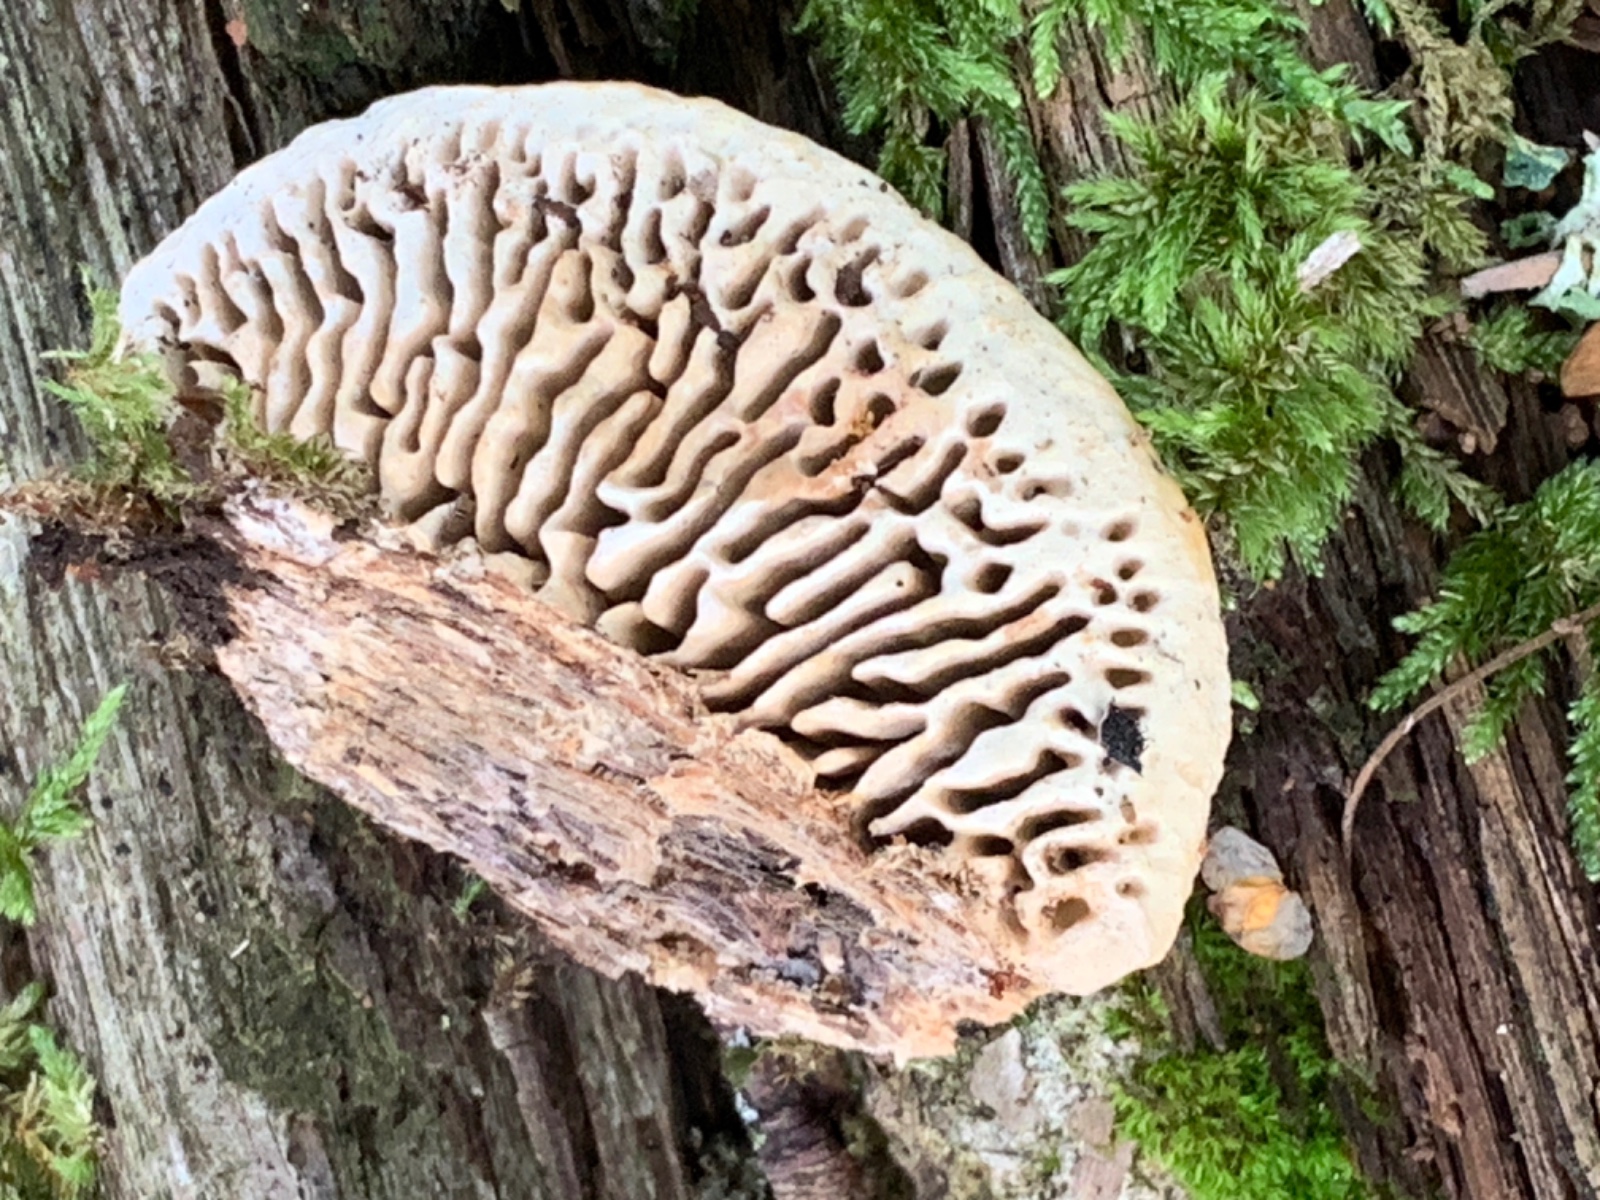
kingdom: Fungi
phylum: Basidiomycota
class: Agaricomycetes
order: Polyporales
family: Fomitopsidaceae
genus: Daedalea
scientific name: Daedalea quercina
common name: ege-labyrintsvamp
